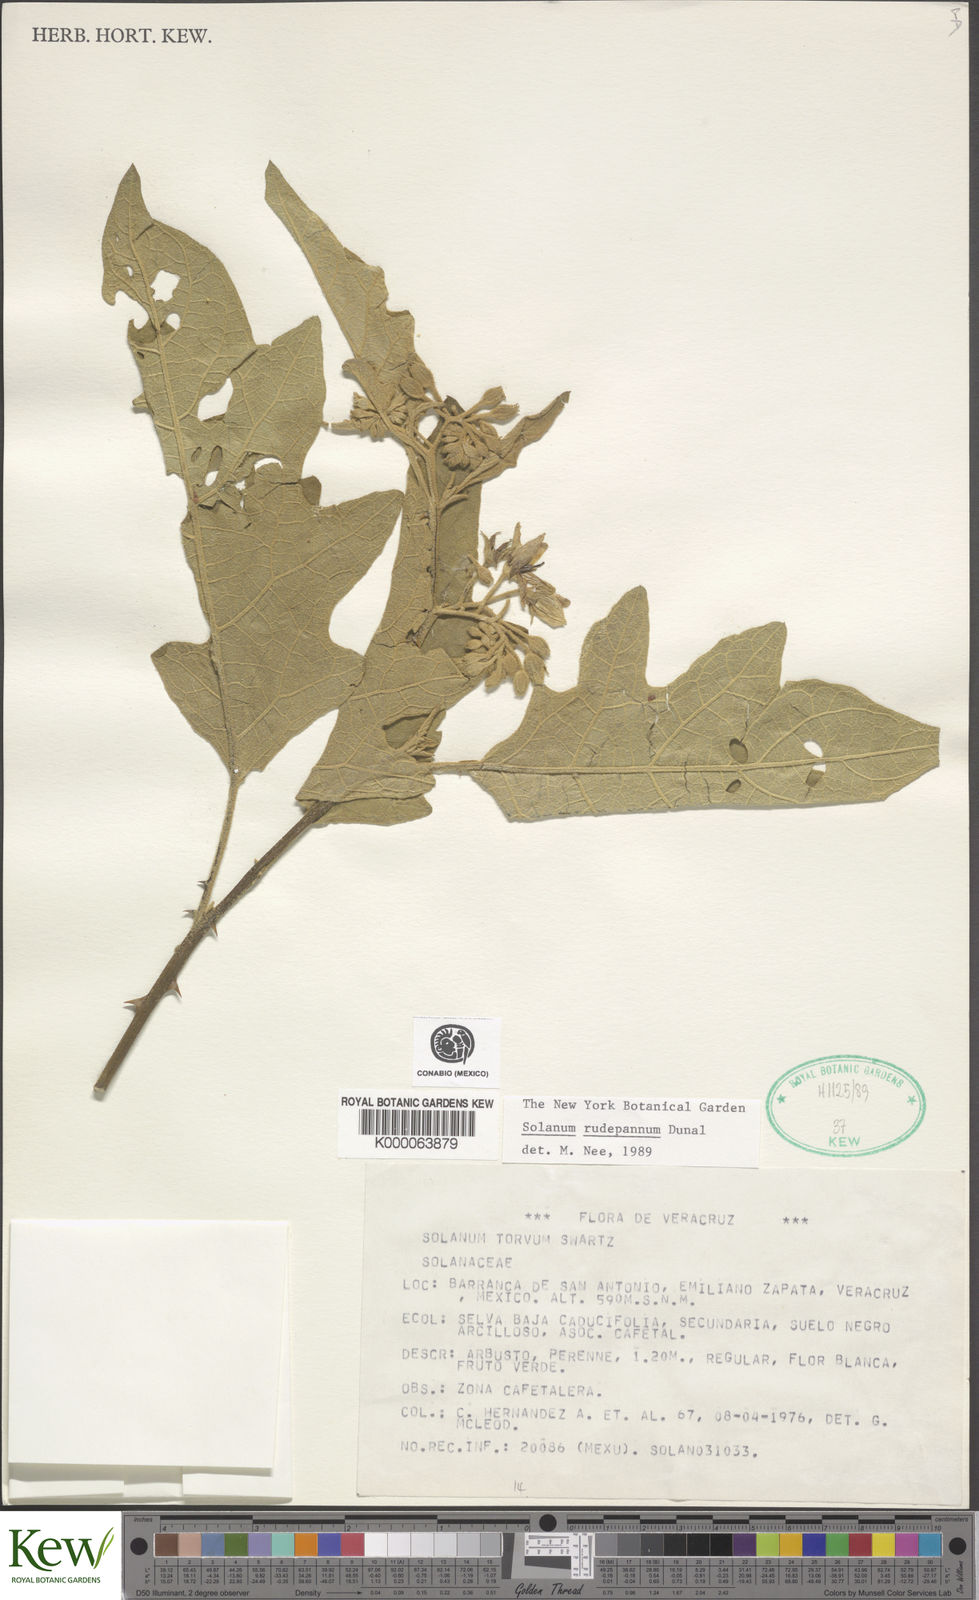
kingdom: Plantae
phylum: Tracheophyta
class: Magnoliopsida
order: Solanales
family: Solanaceae
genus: Solanum
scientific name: Solanum rude-pannum
